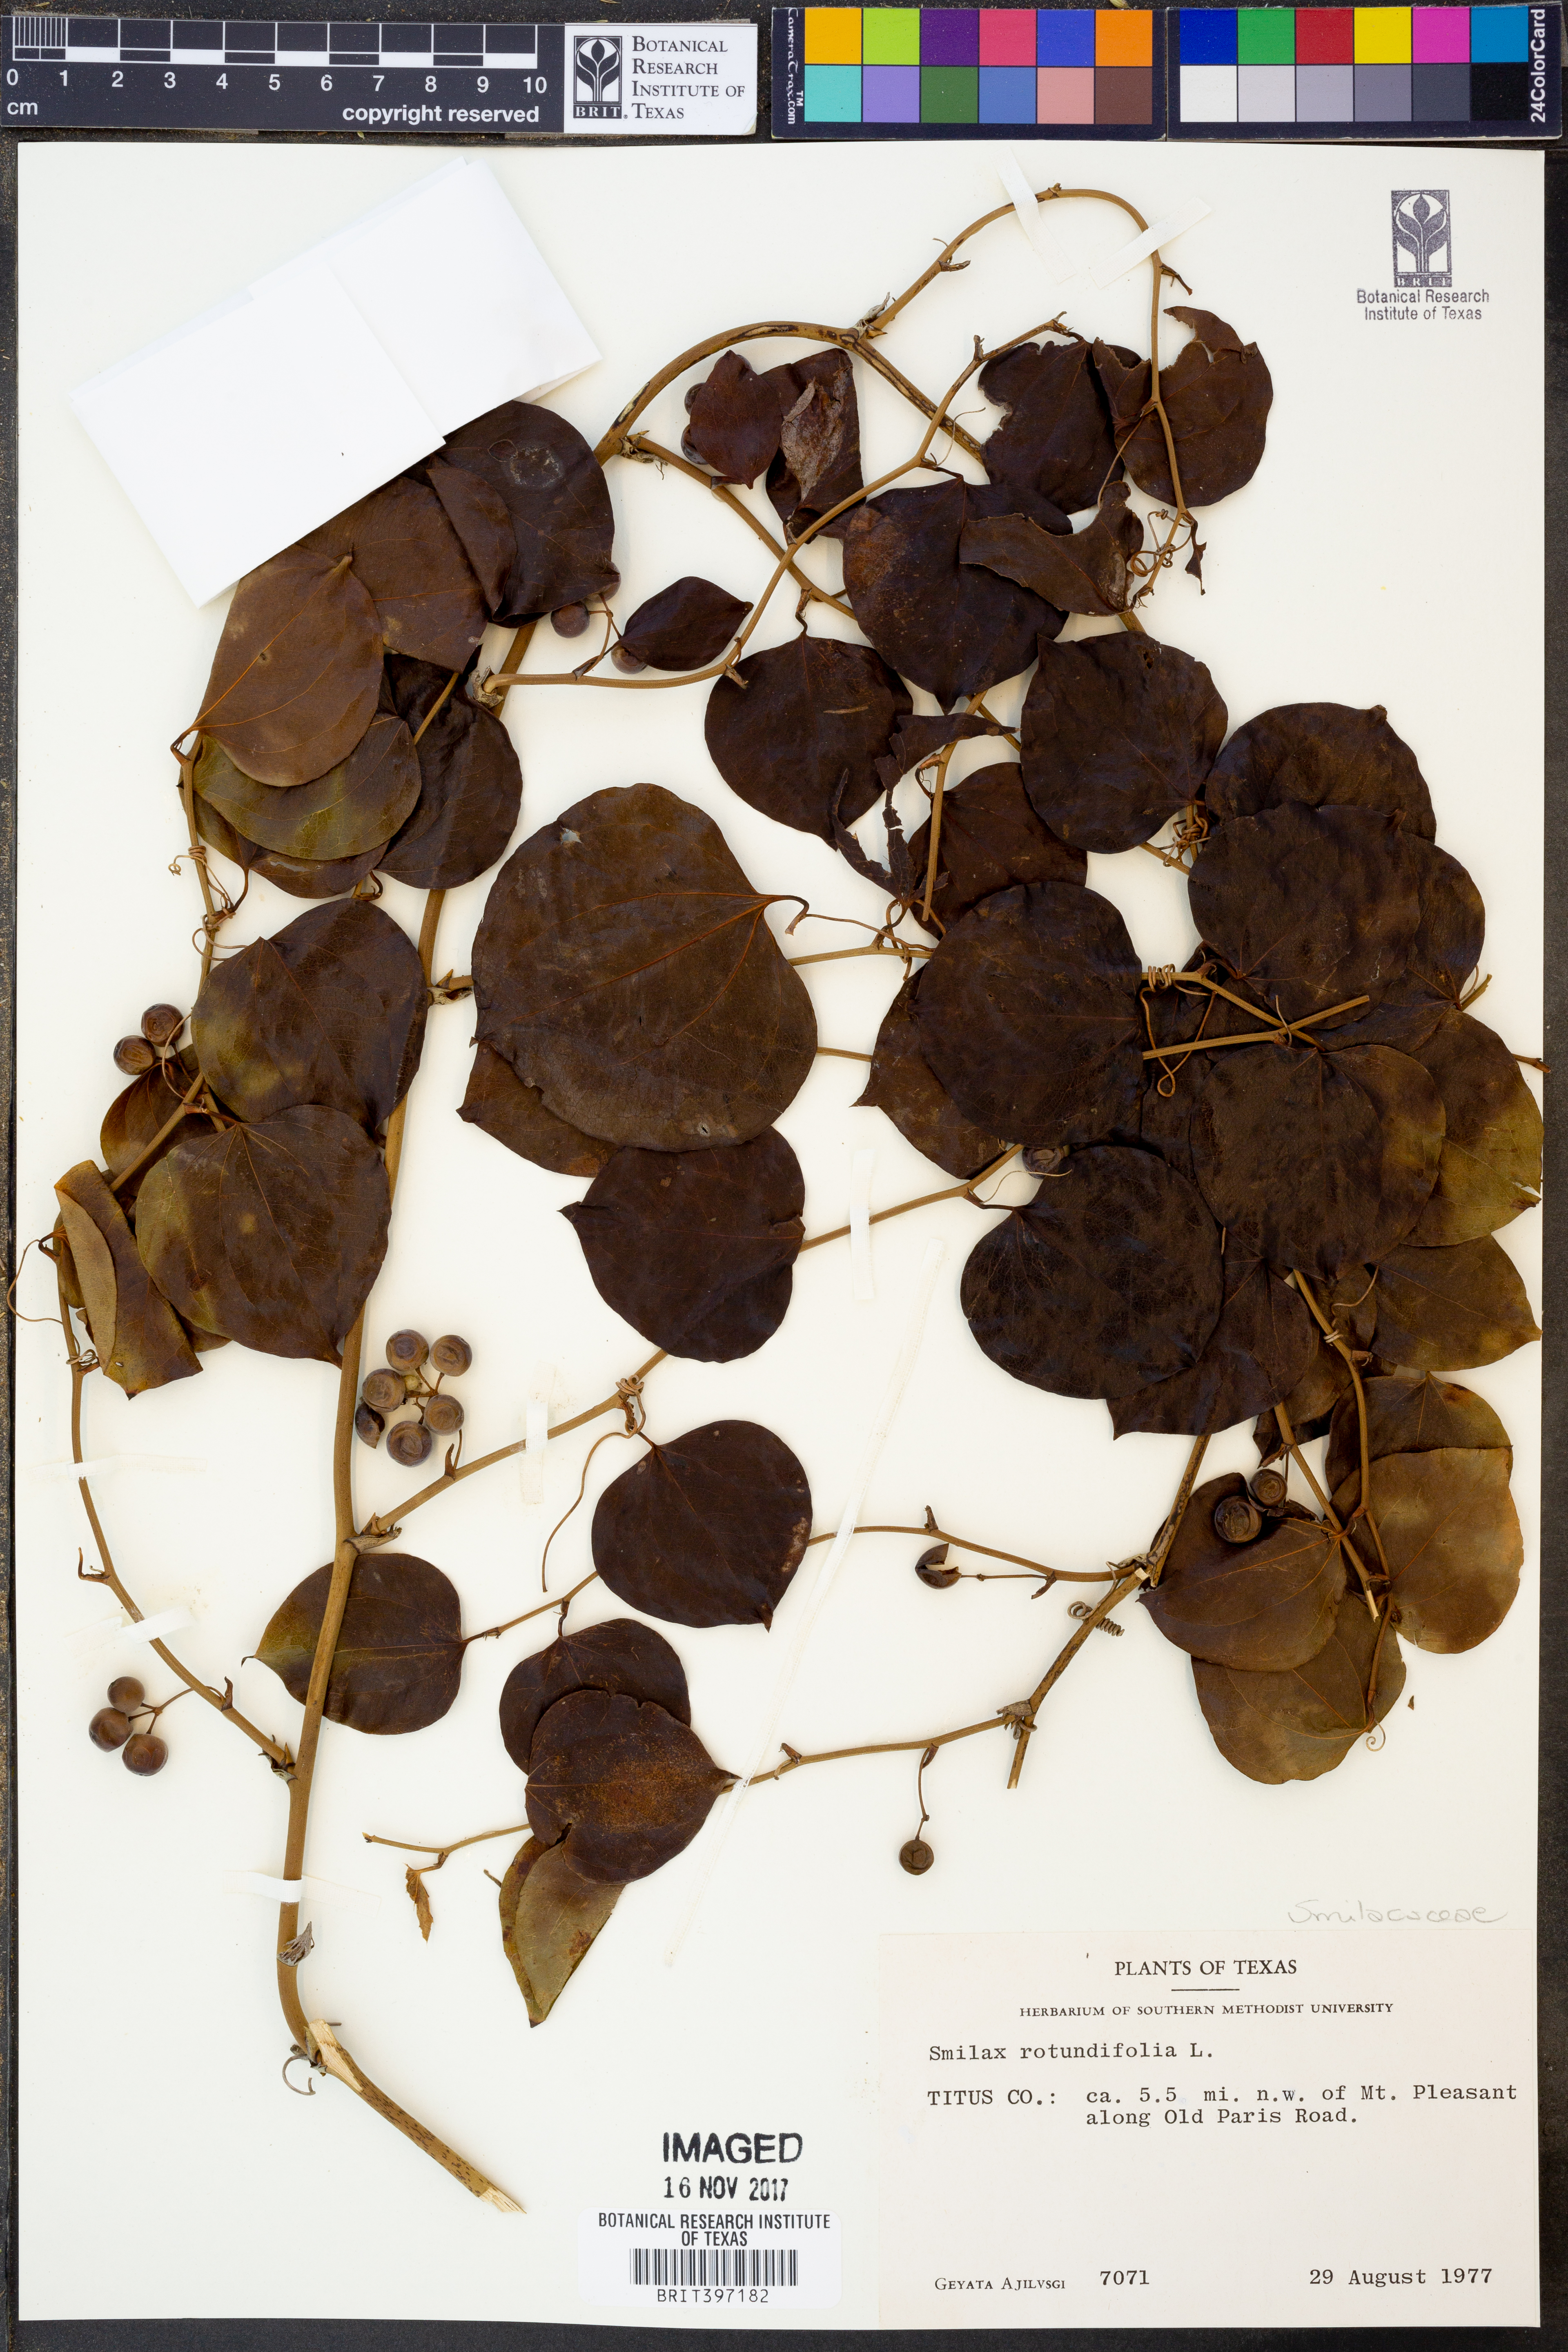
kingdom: Plantae
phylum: Tracheophyta
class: Liliopsida
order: Liliales
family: Smilacaceae
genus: Smilax
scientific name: Smilax rotundifolia
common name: Bullbriar
